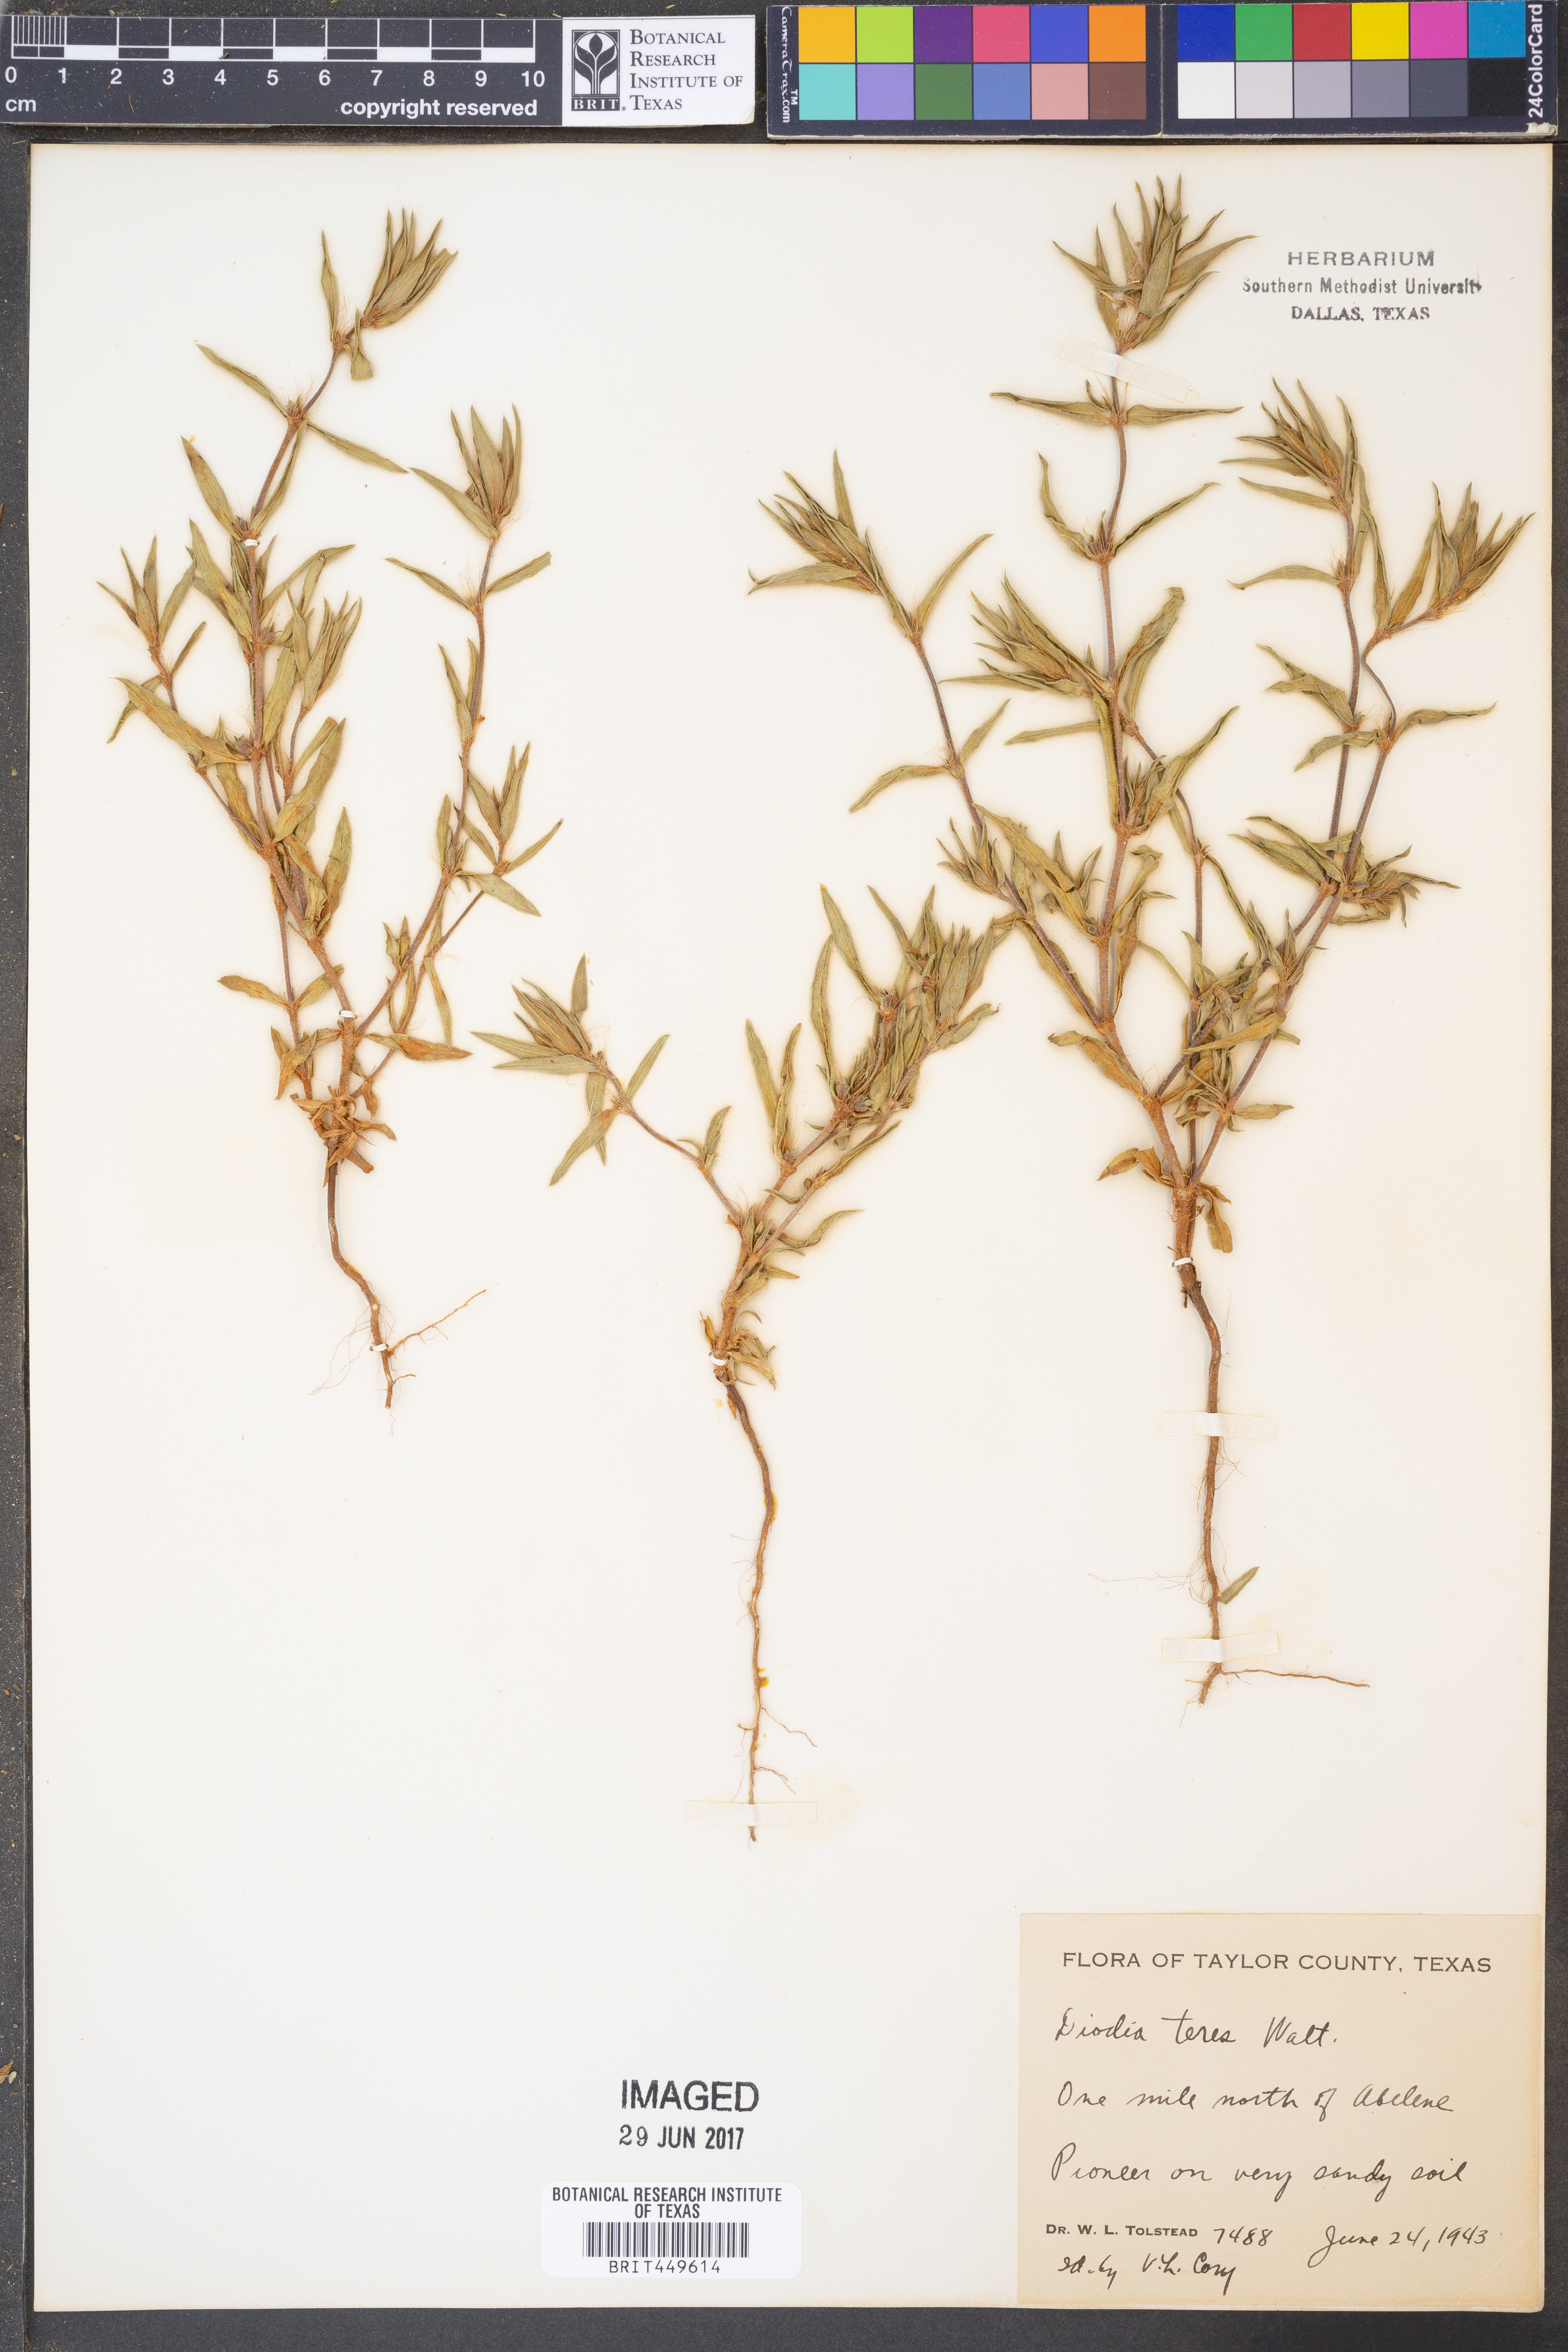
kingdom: Plantae
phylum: Tracheophyta
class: Magnoliopsida
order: Gentianales
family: Rubiaceae
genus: Hexasepalum
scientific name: Hexasepalum teres
